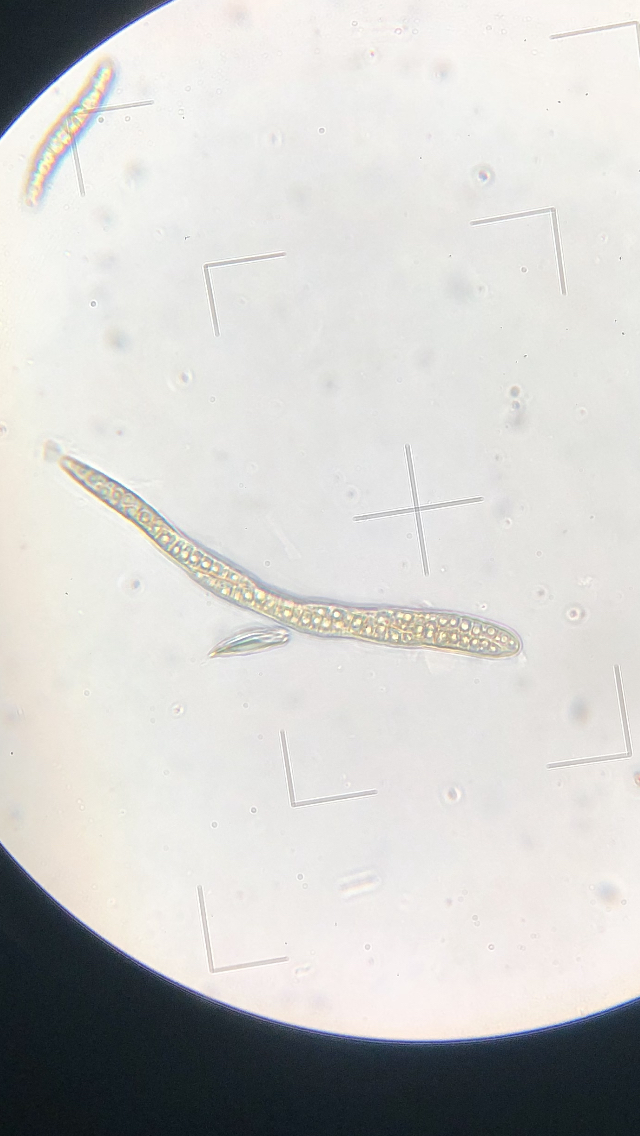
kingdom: Fungi
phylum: Ascomycota
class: Dothideomycetes
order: Pleosporales
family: Leptosphaeriaceae
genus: Leptosphaeria
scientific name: Leptosphaeria acuta
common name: spids kulkegle
